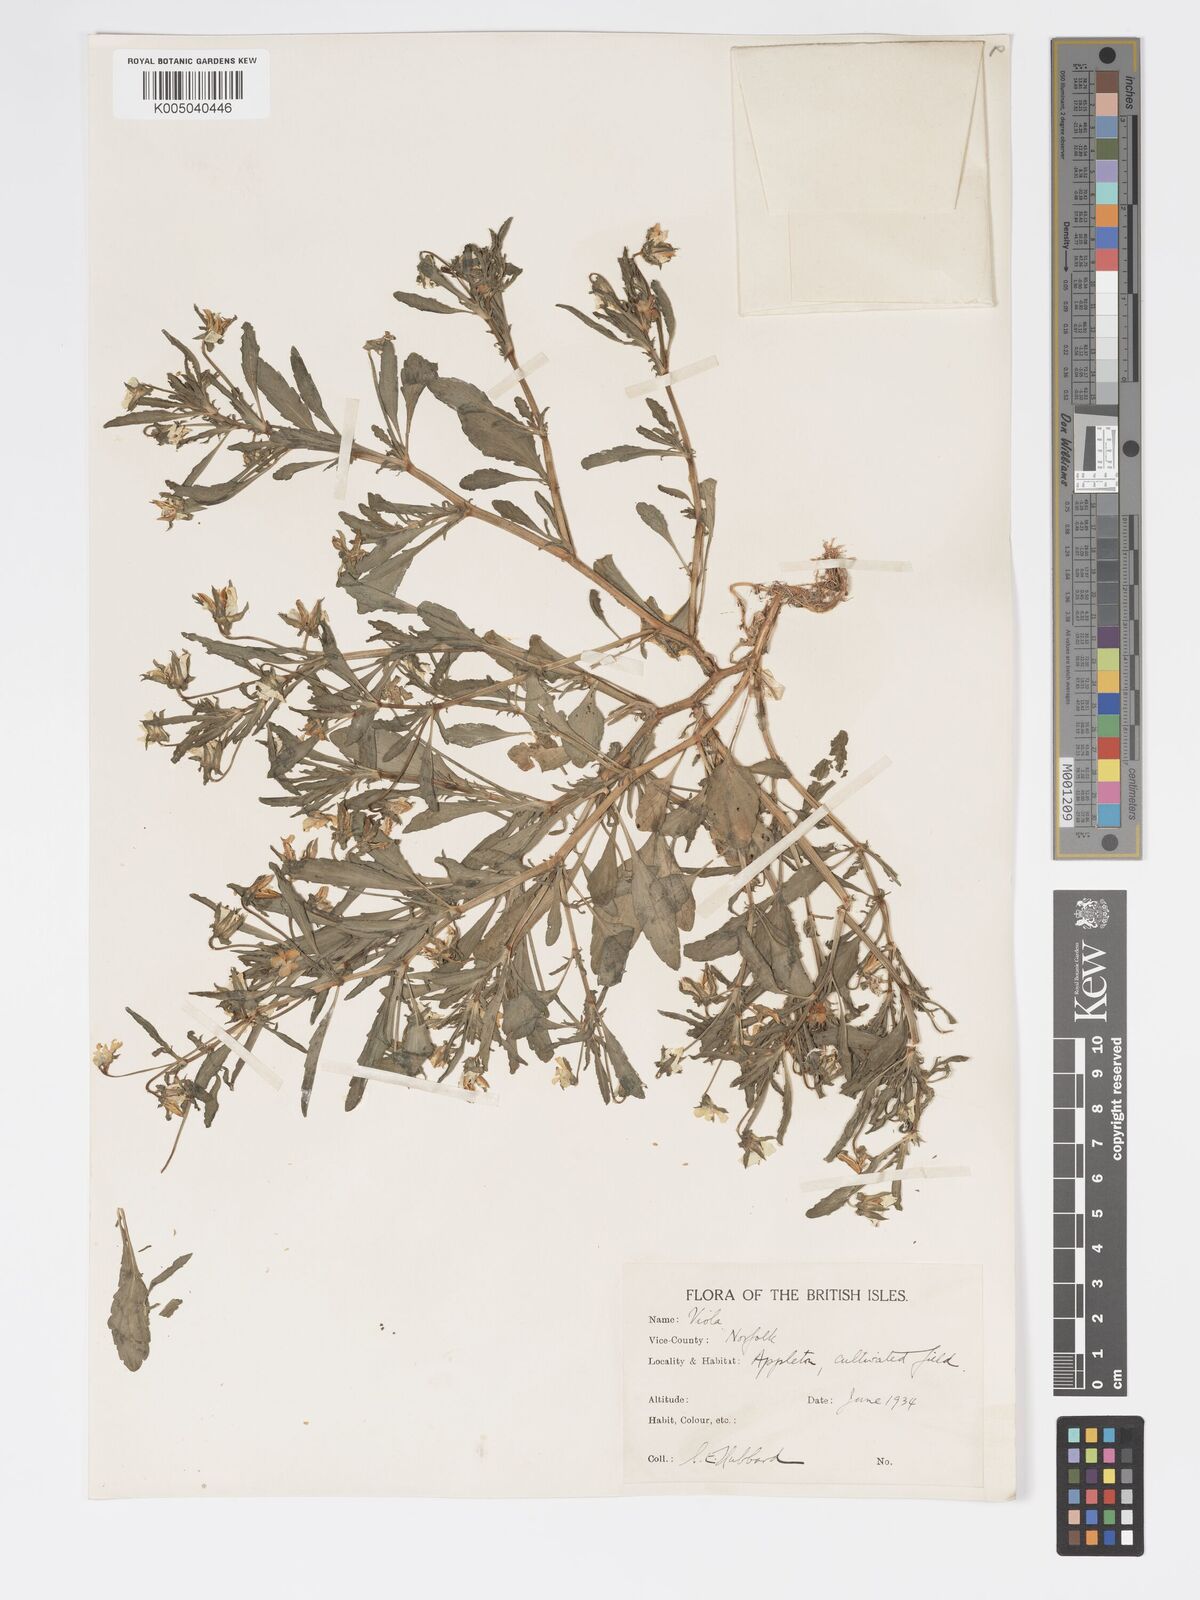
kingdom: Plantae
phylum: Tracheophyta
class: Magnoliopsida
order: Malpighiales
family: Violaceae
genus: Viola
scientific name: Viola arvensis
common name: Field pansy
